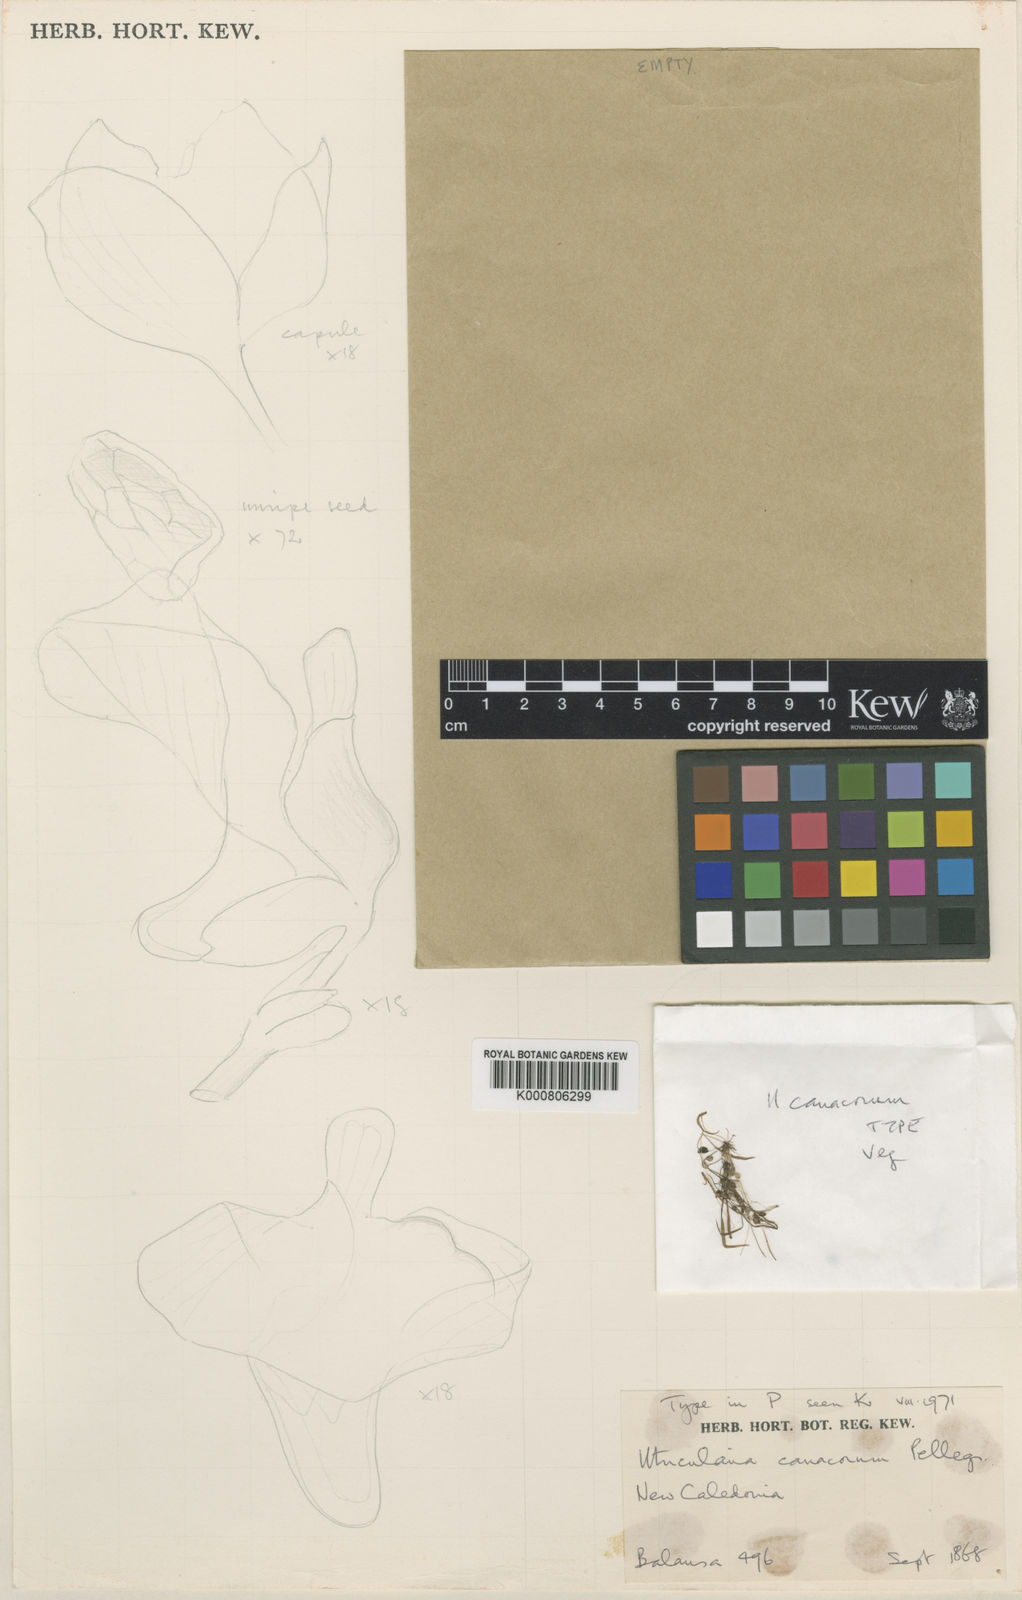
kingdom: Plantae
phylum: Tracheophyta
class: Magnoliopsida
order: Lamiales
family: Lentibulariaceae
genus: Utricularia
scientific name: Utricularia dichotoma
